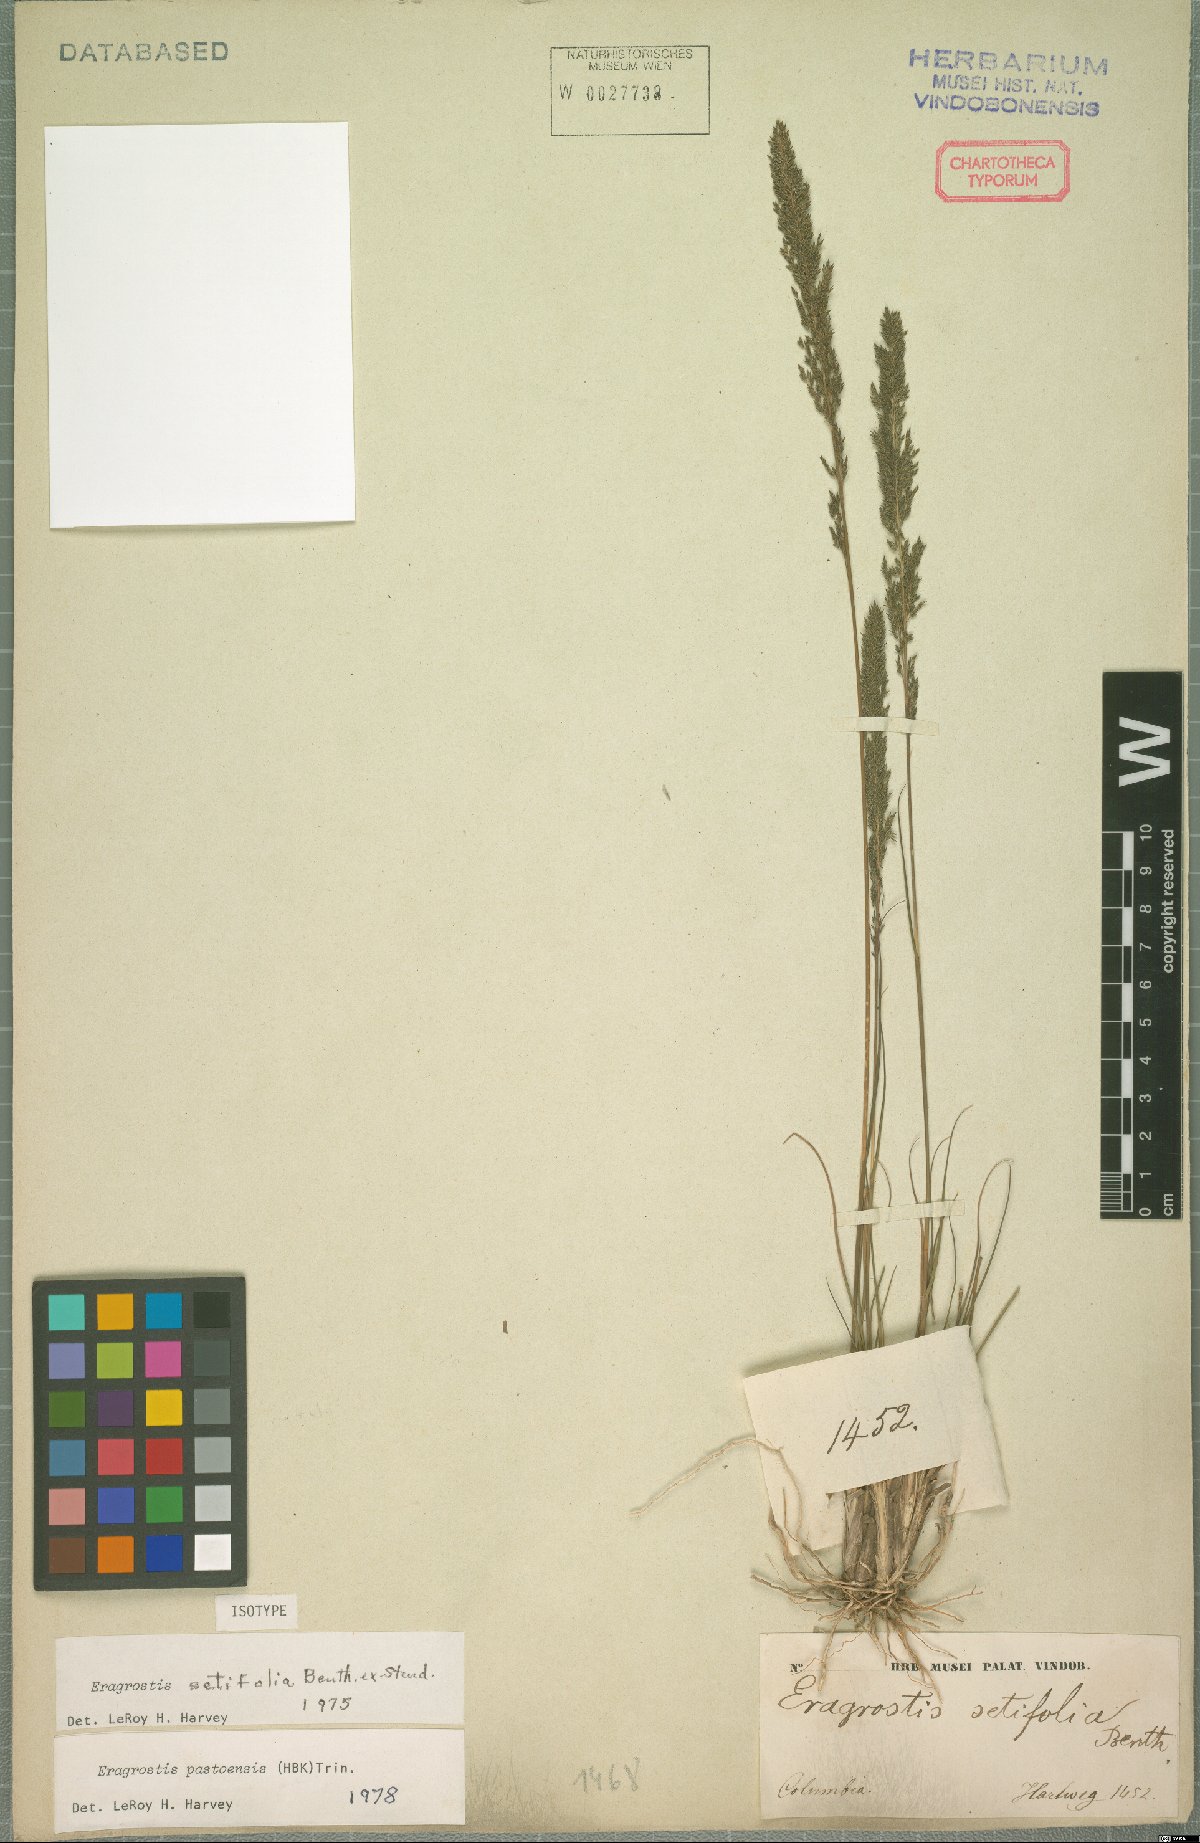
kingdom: Plantae
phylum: Tracheophyta
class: Liliopsida
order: Poales
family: Poaceae
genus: Eragrostis
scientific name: Eragrostis pastoensis
